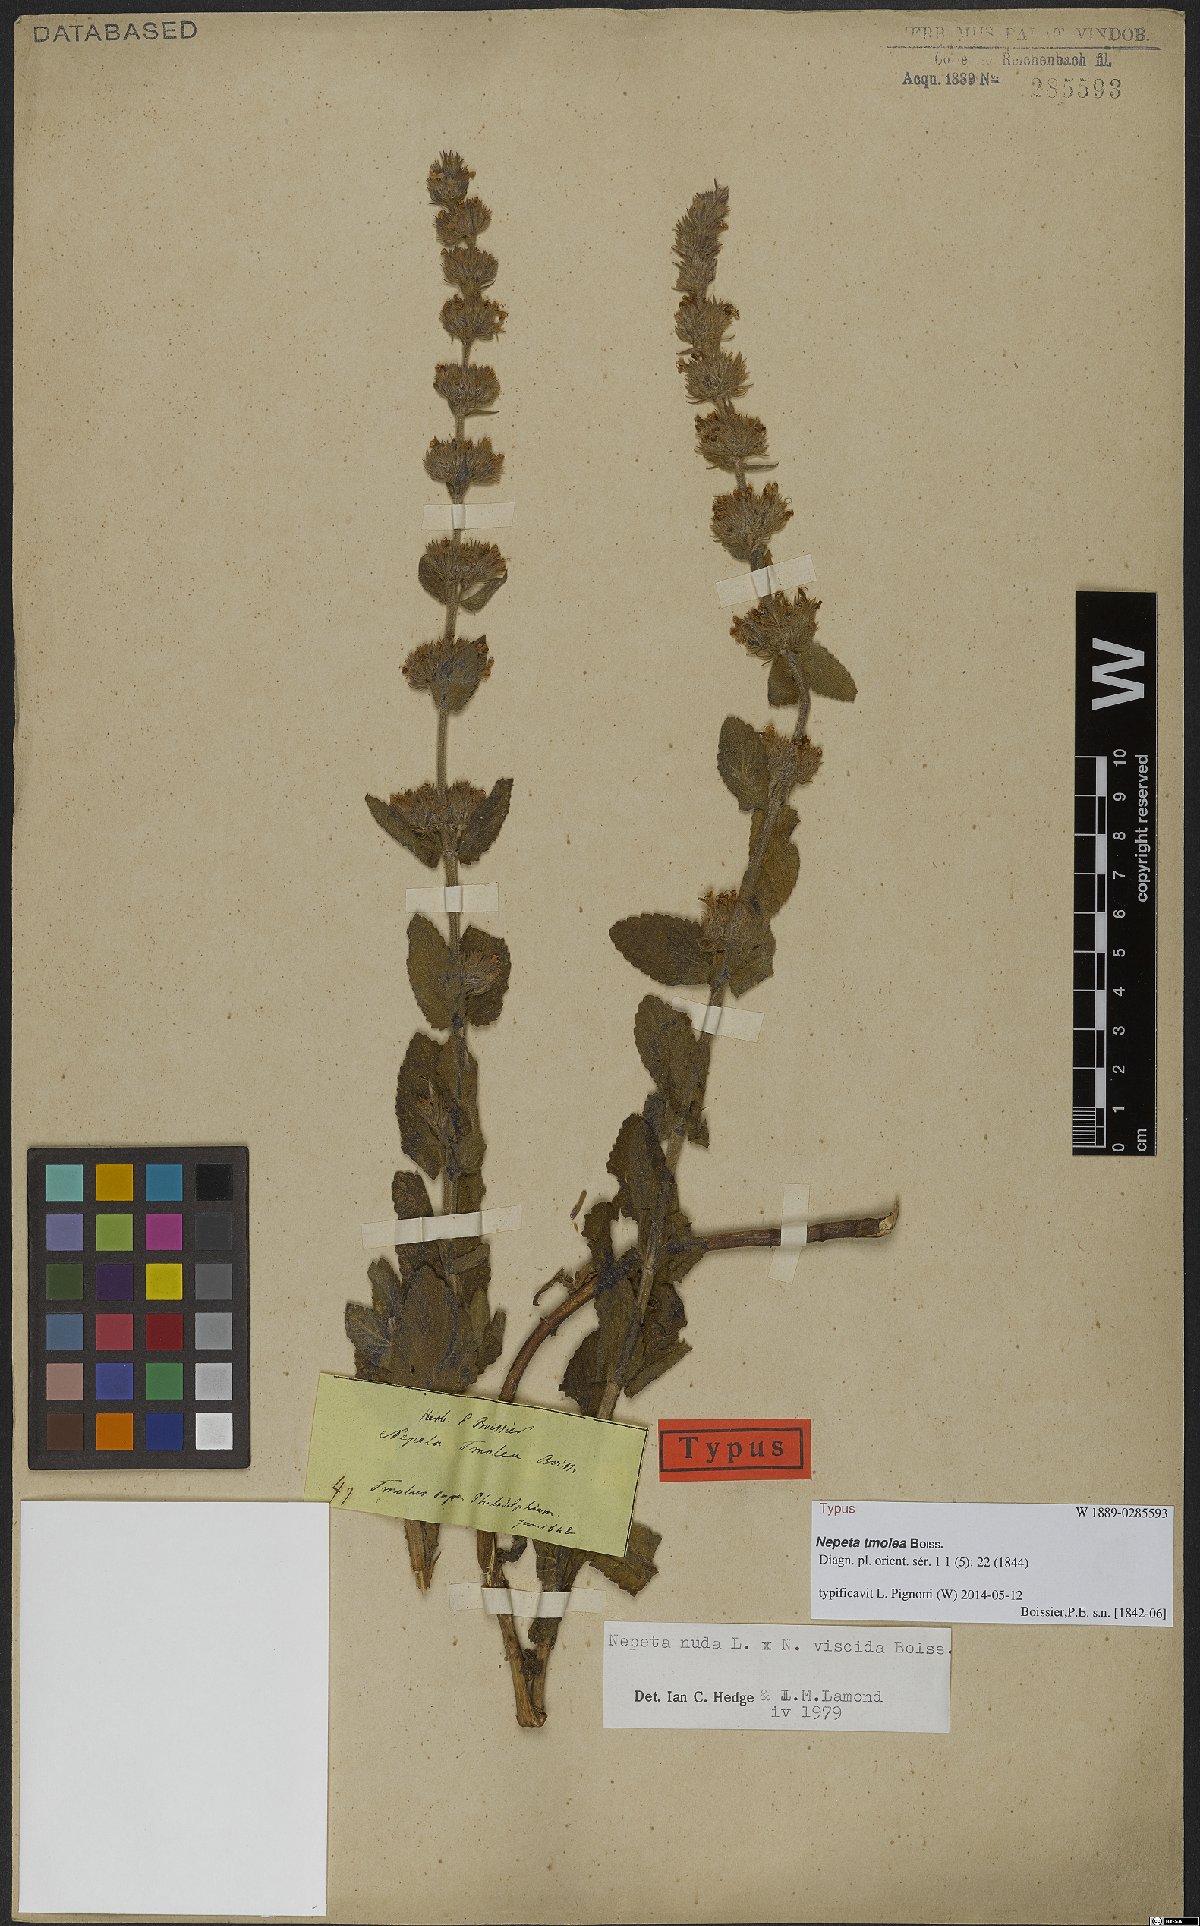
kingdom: Plantae
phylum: Tracheophyta
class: Magnoliopsida
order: Lamiales
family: Lamiaceae
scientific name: Lamiaceae
